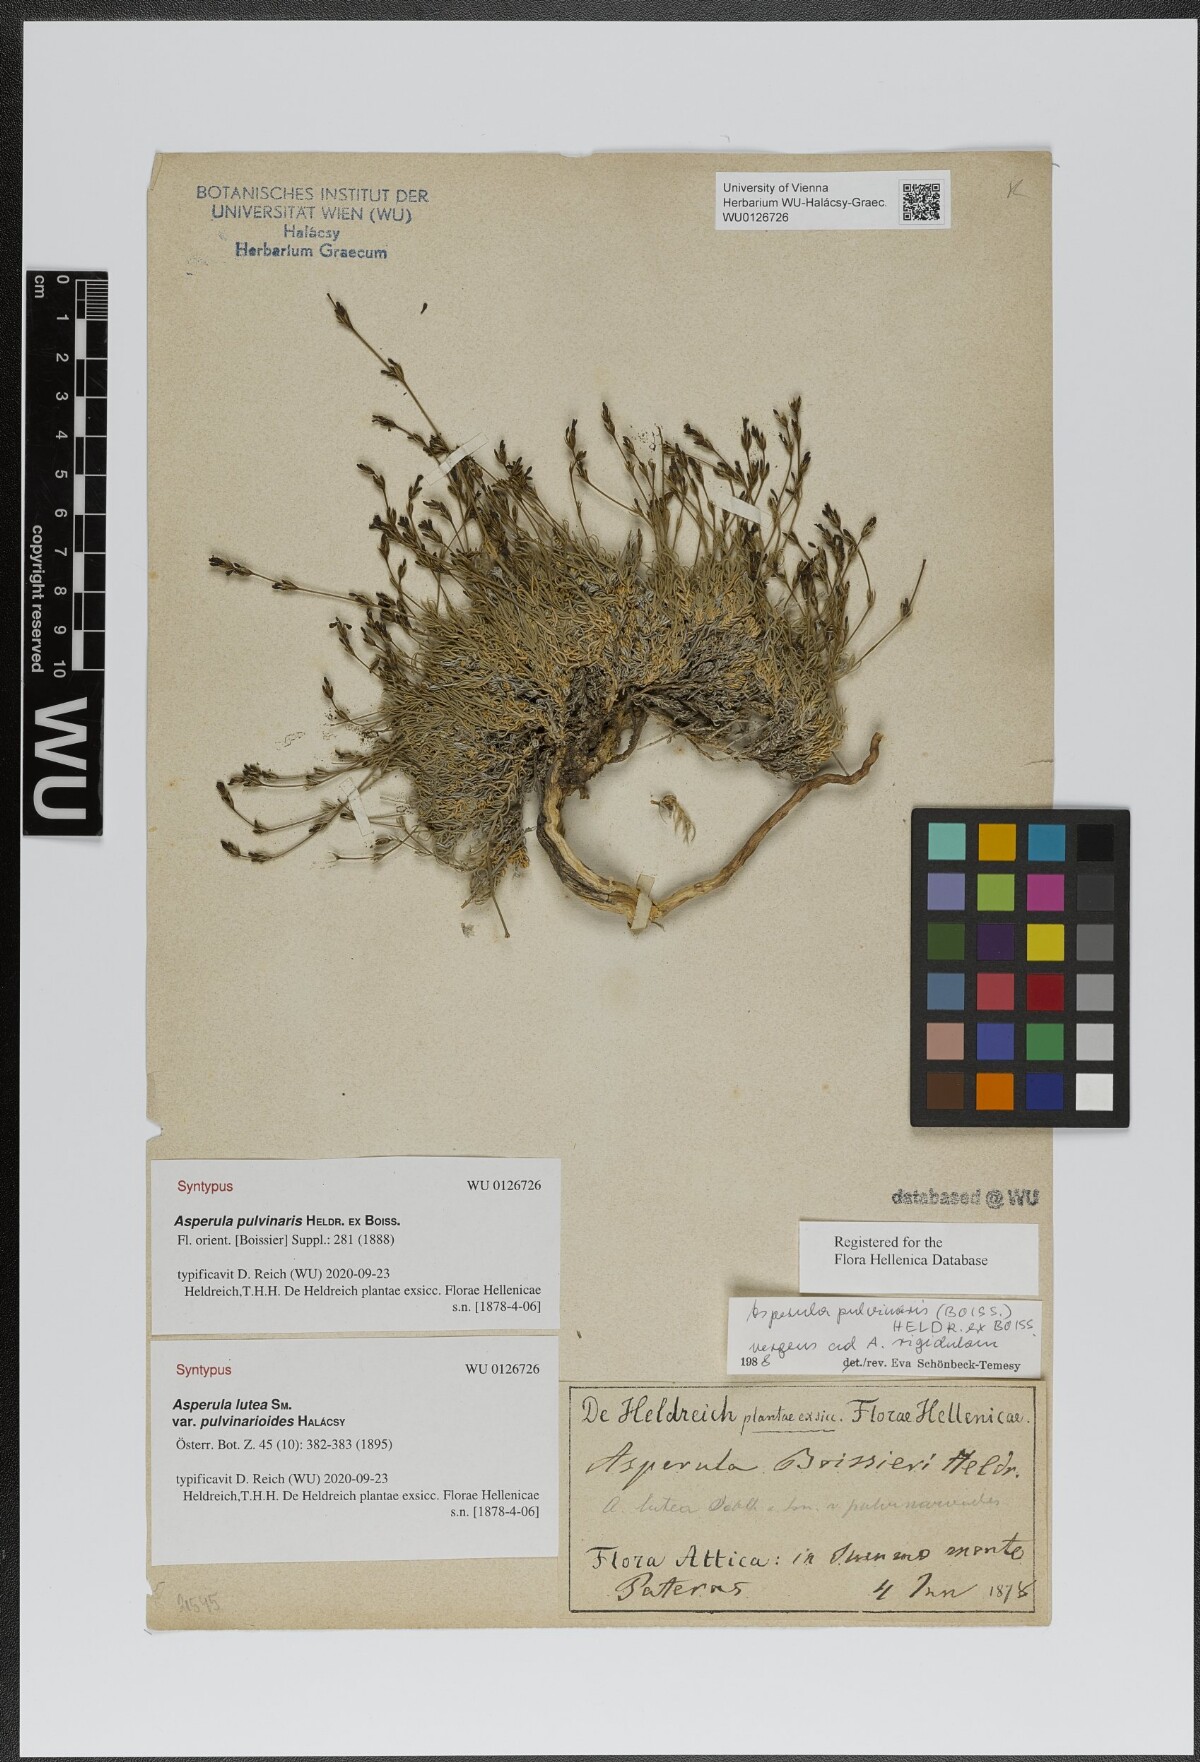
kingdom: Plantae
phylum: Tracheophyta
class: Magnoliopsida
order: Gentianales
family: Rubiaceae
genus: Cynanchica
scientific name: Cynanchica pulvinaris
